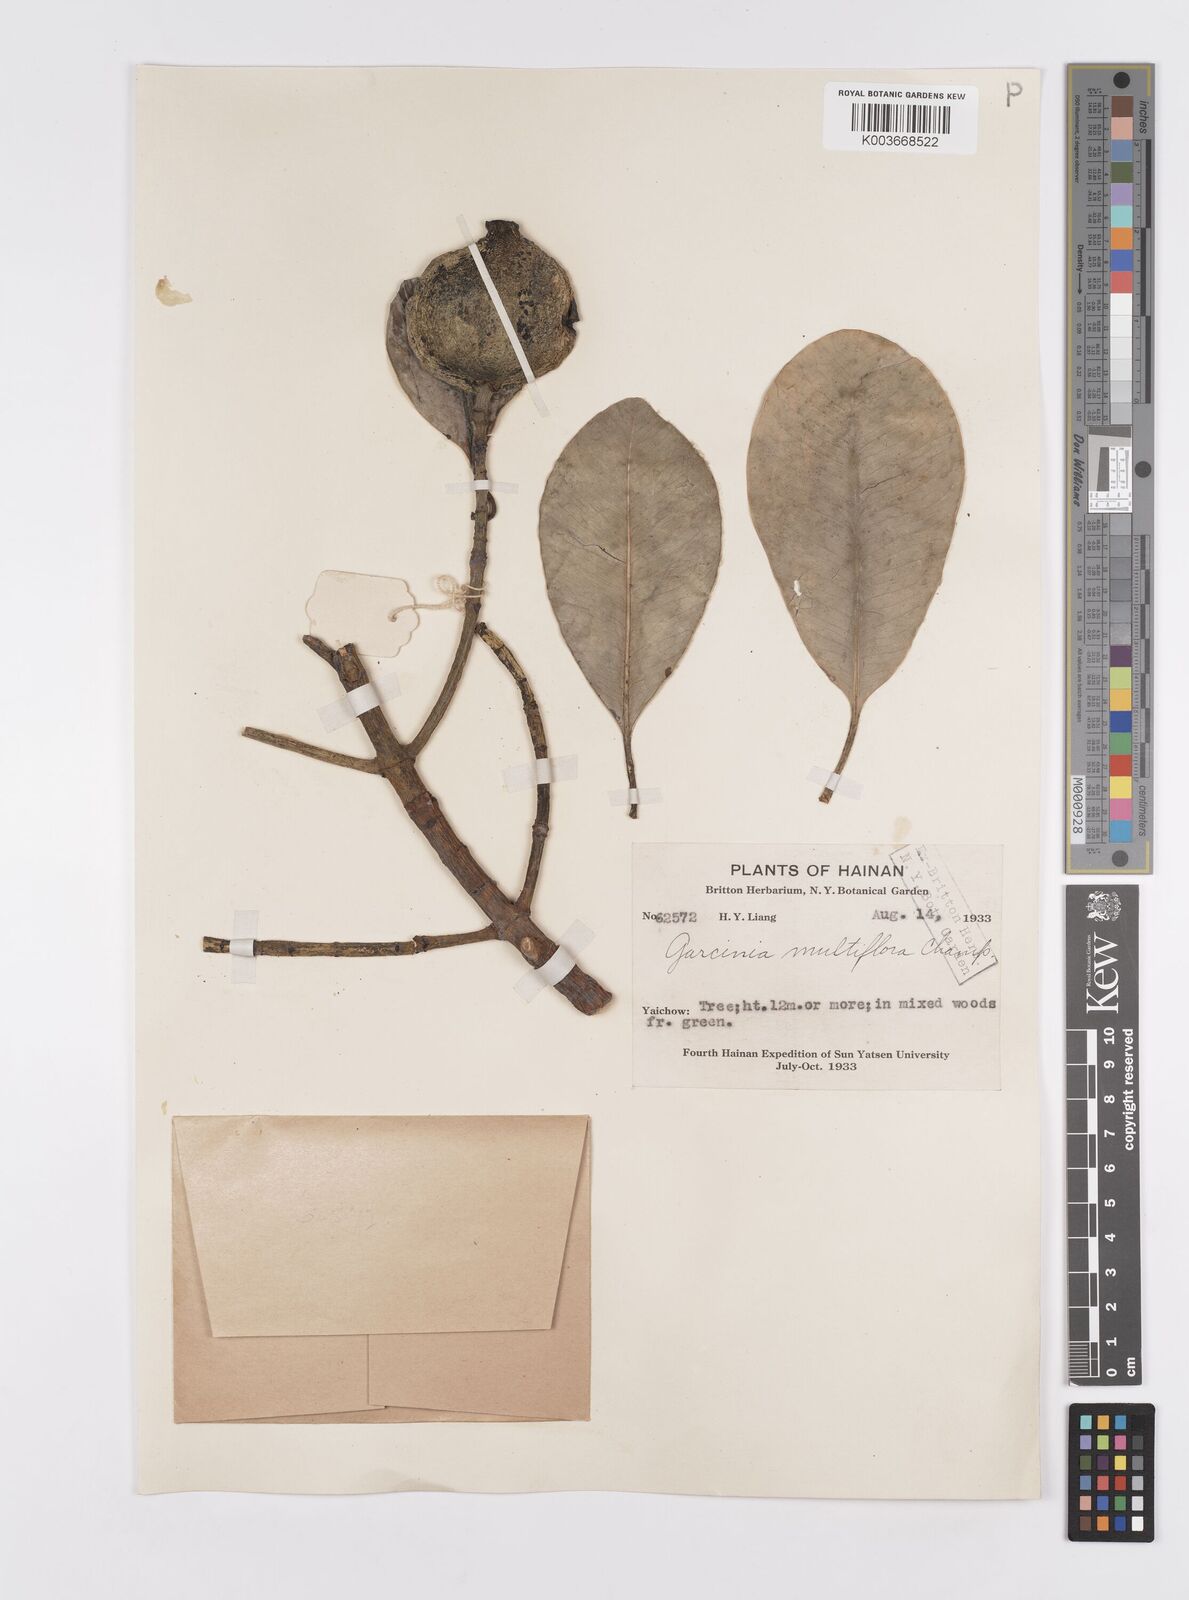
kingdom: Plantae
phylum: Tracheophyta
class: Magnoliopsida
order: Malpighiales
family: Clusiaceae
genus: Garcinia
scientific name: Garcinia multiflora
